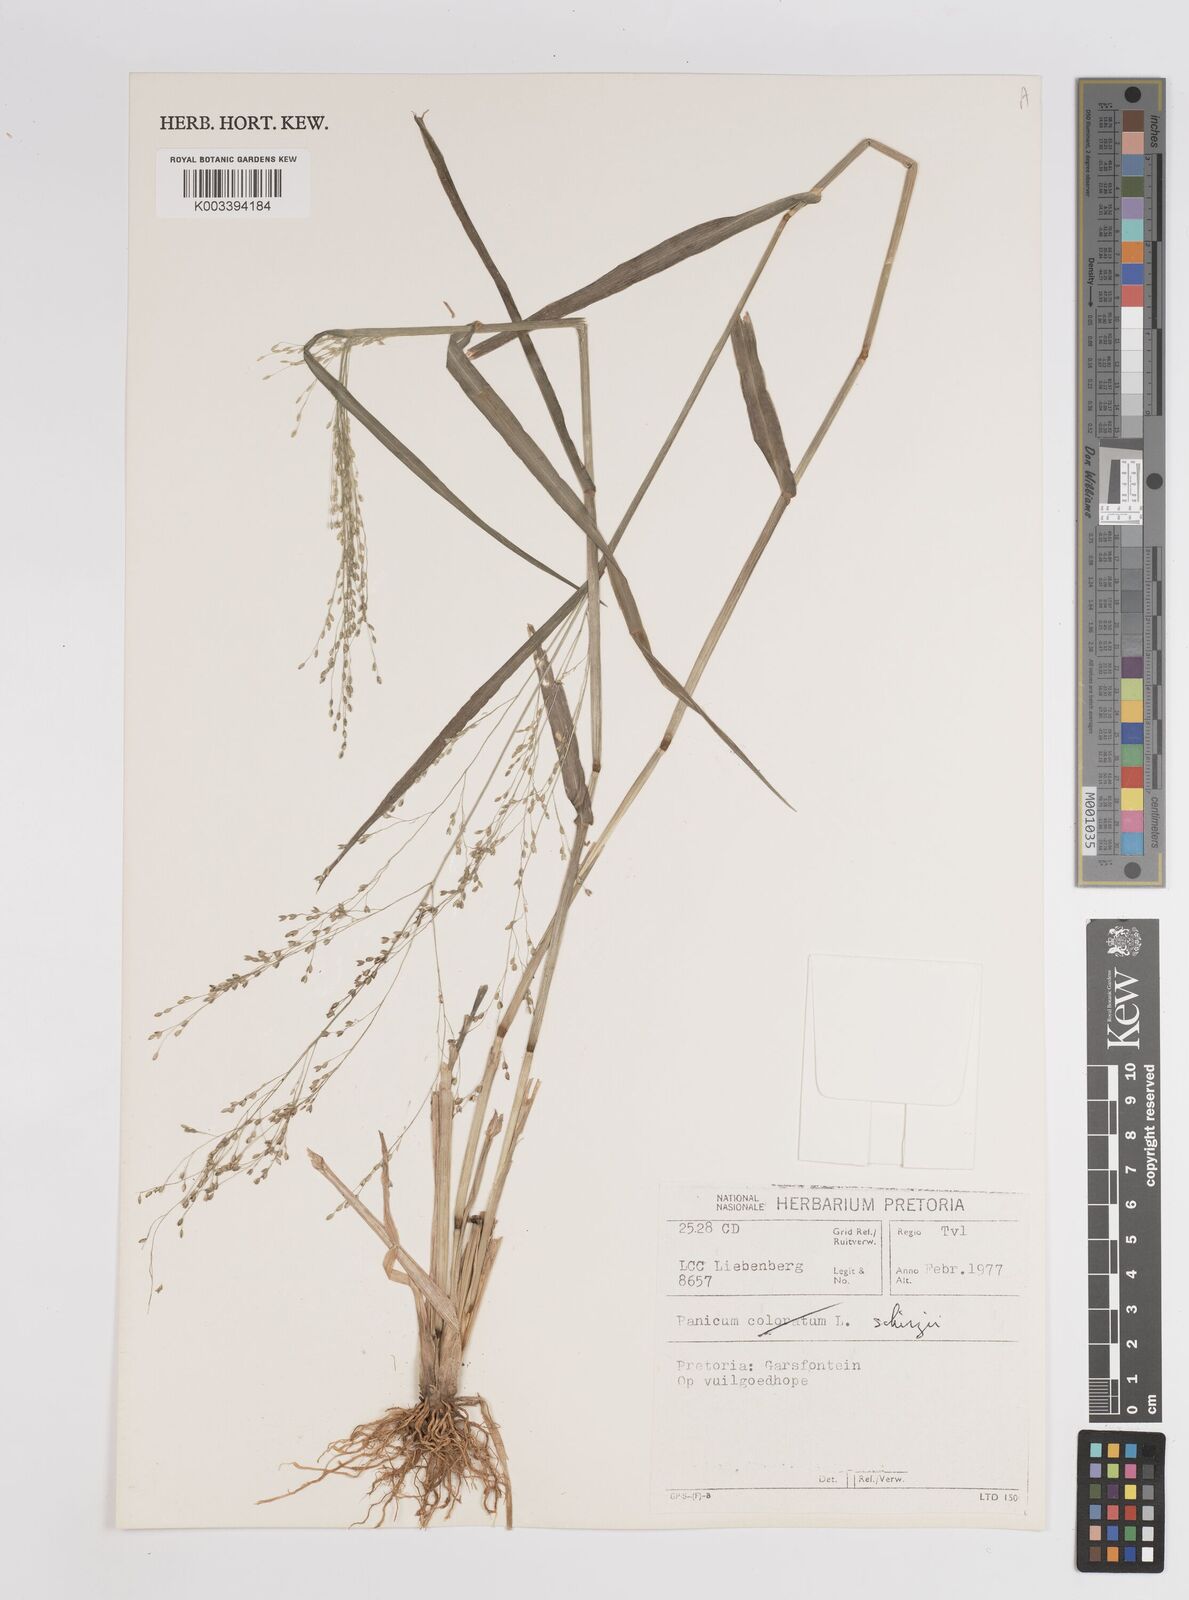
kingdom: Plantae
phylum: Tracheophyta
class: Liliopsida
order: Poales
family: Poaceae
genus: Panicum
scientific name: Panicum schinzii
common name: Sweet grass
